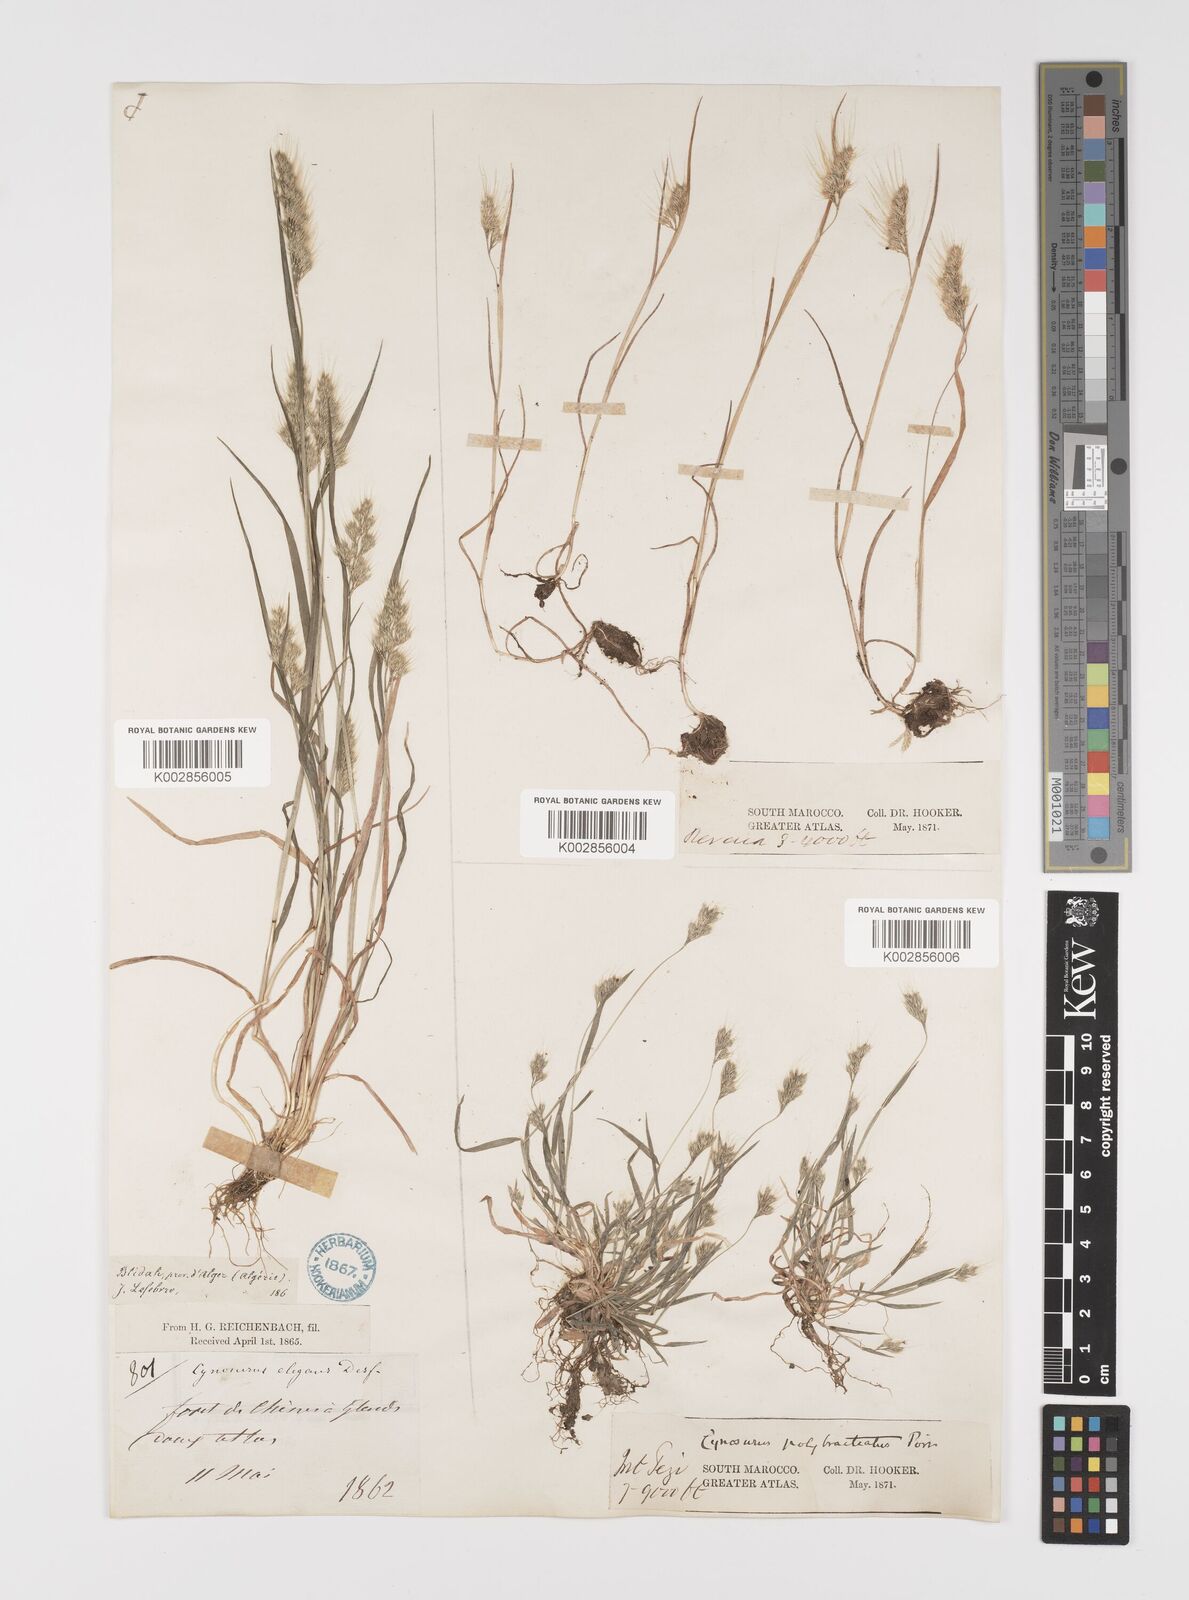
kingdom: Plantae
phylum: Tracheophyta
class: Liliopsida
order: Poales
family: Poaceae
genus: Cynosurus
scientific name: Cynosurus elegans
